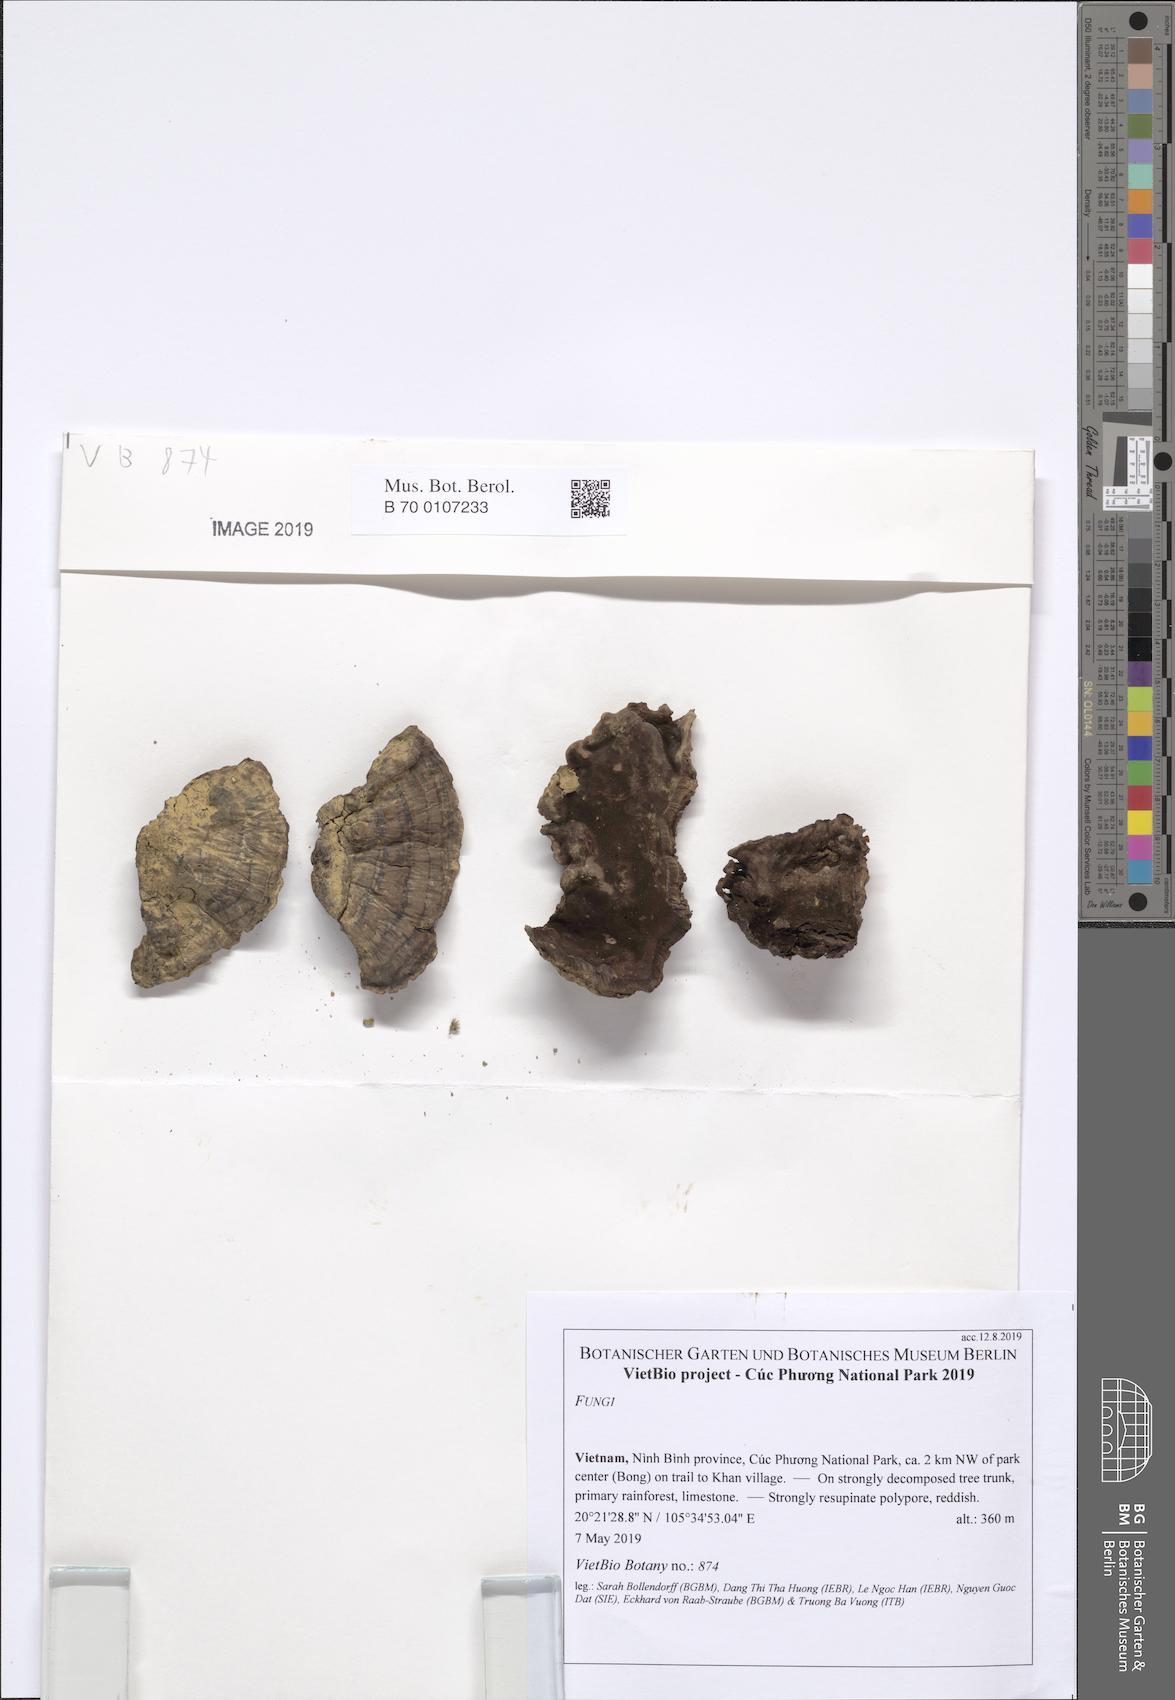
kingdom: Fungi
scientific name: Fungi
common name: Fungi
